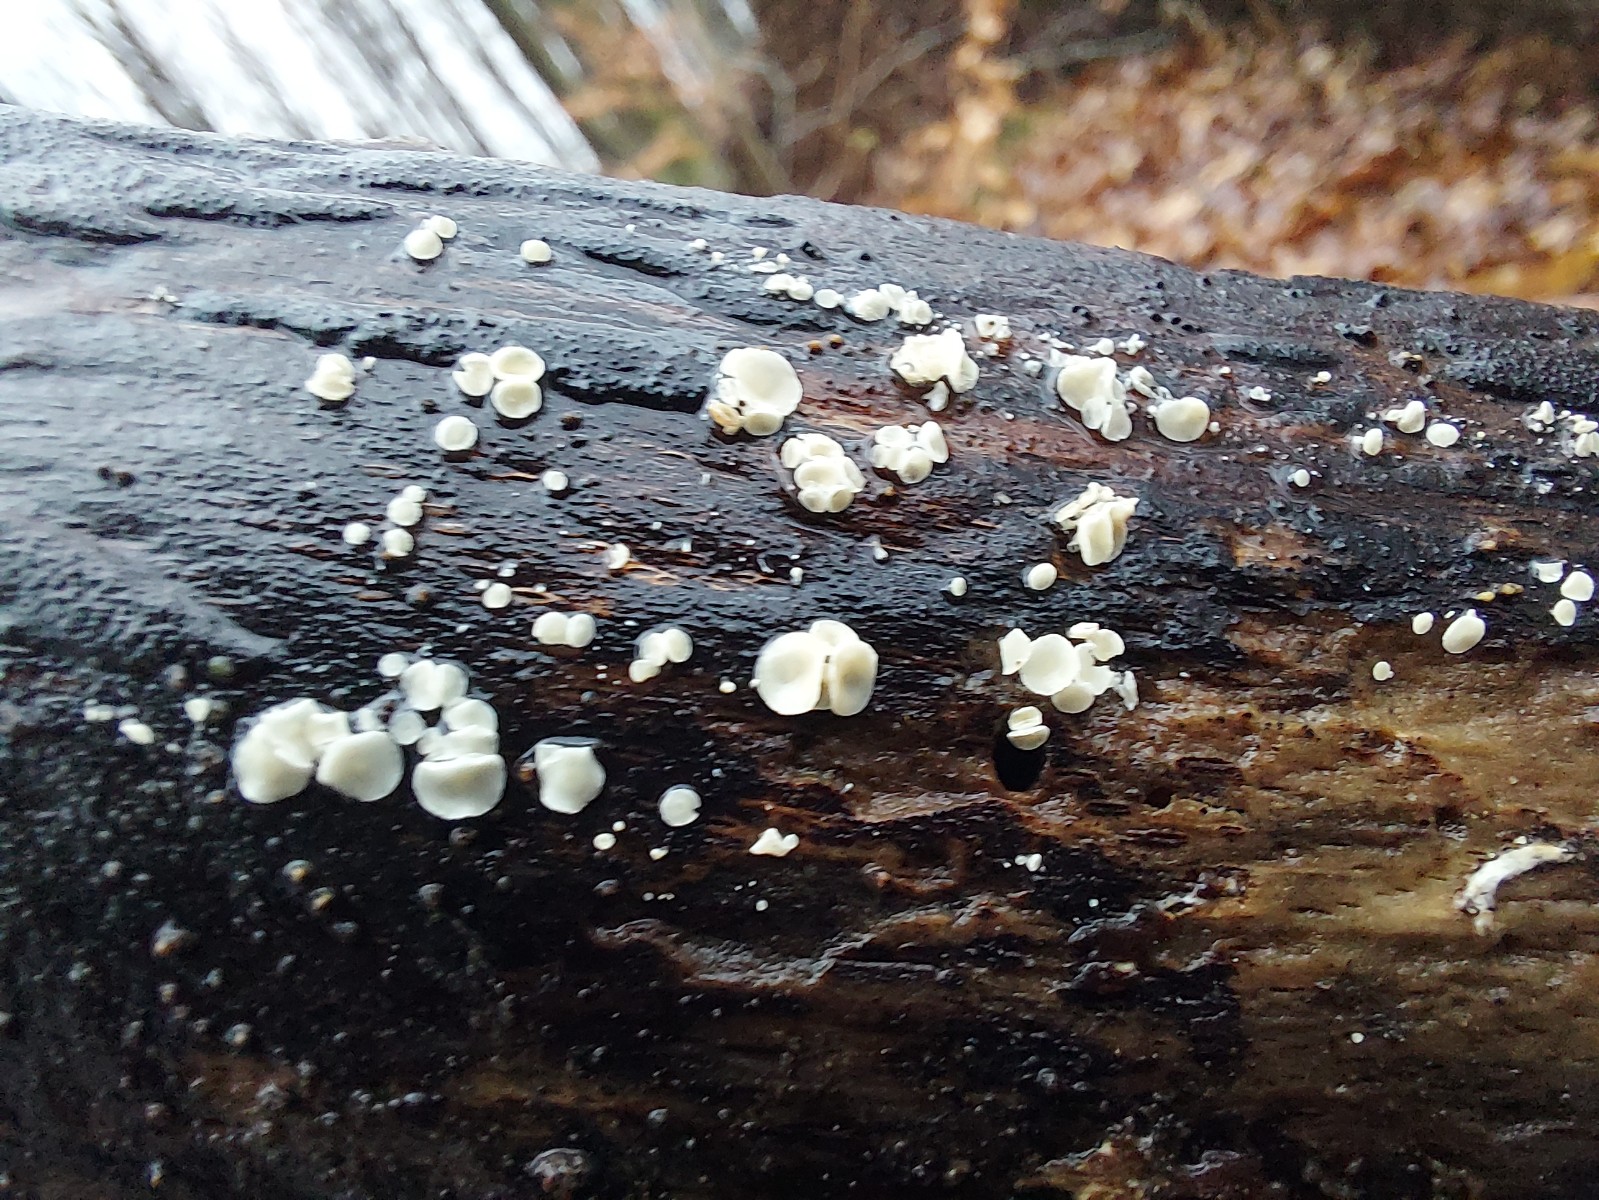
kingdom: Fungi
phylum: Ascomycota
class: Leotiomycetes
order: Helotiales
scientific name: Helotiales
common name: stilkskiveordenen
